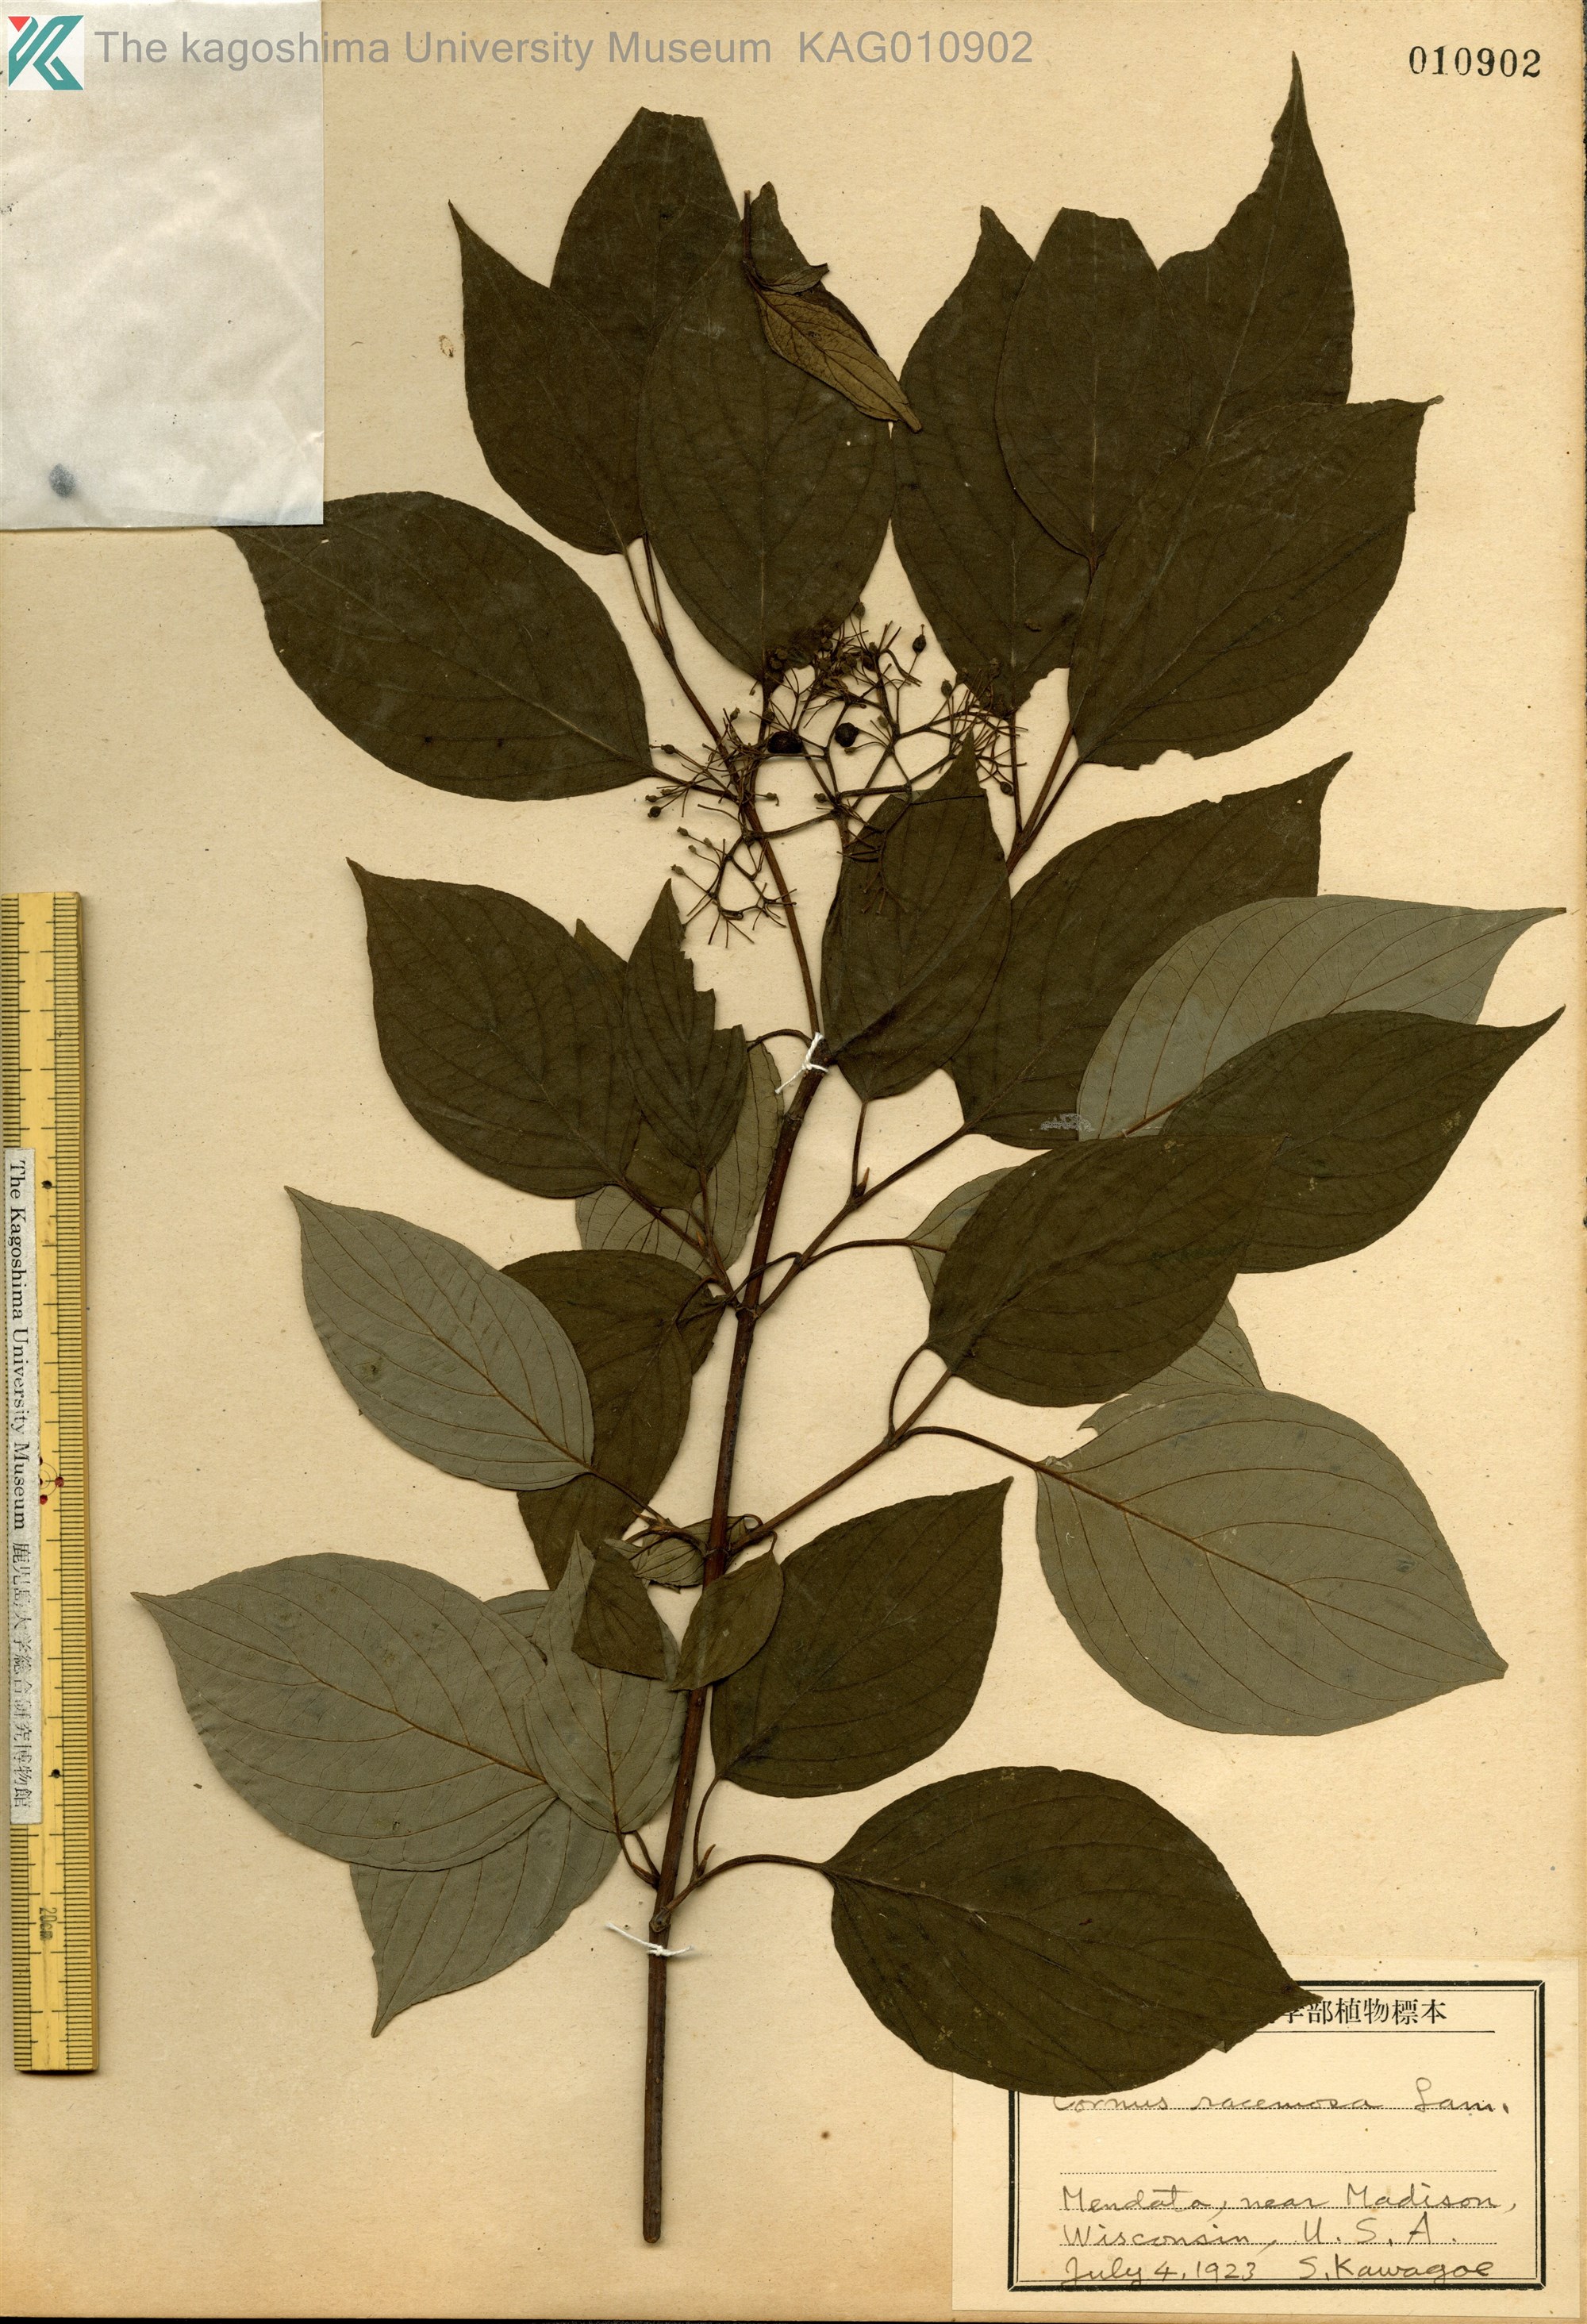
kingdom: Plantae
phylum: Tracheophyta
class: Magnoliopsida
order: Cornales
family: Cornaceae
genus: Cornus
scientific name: Cornus racemosa
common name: Panicled dogwood
